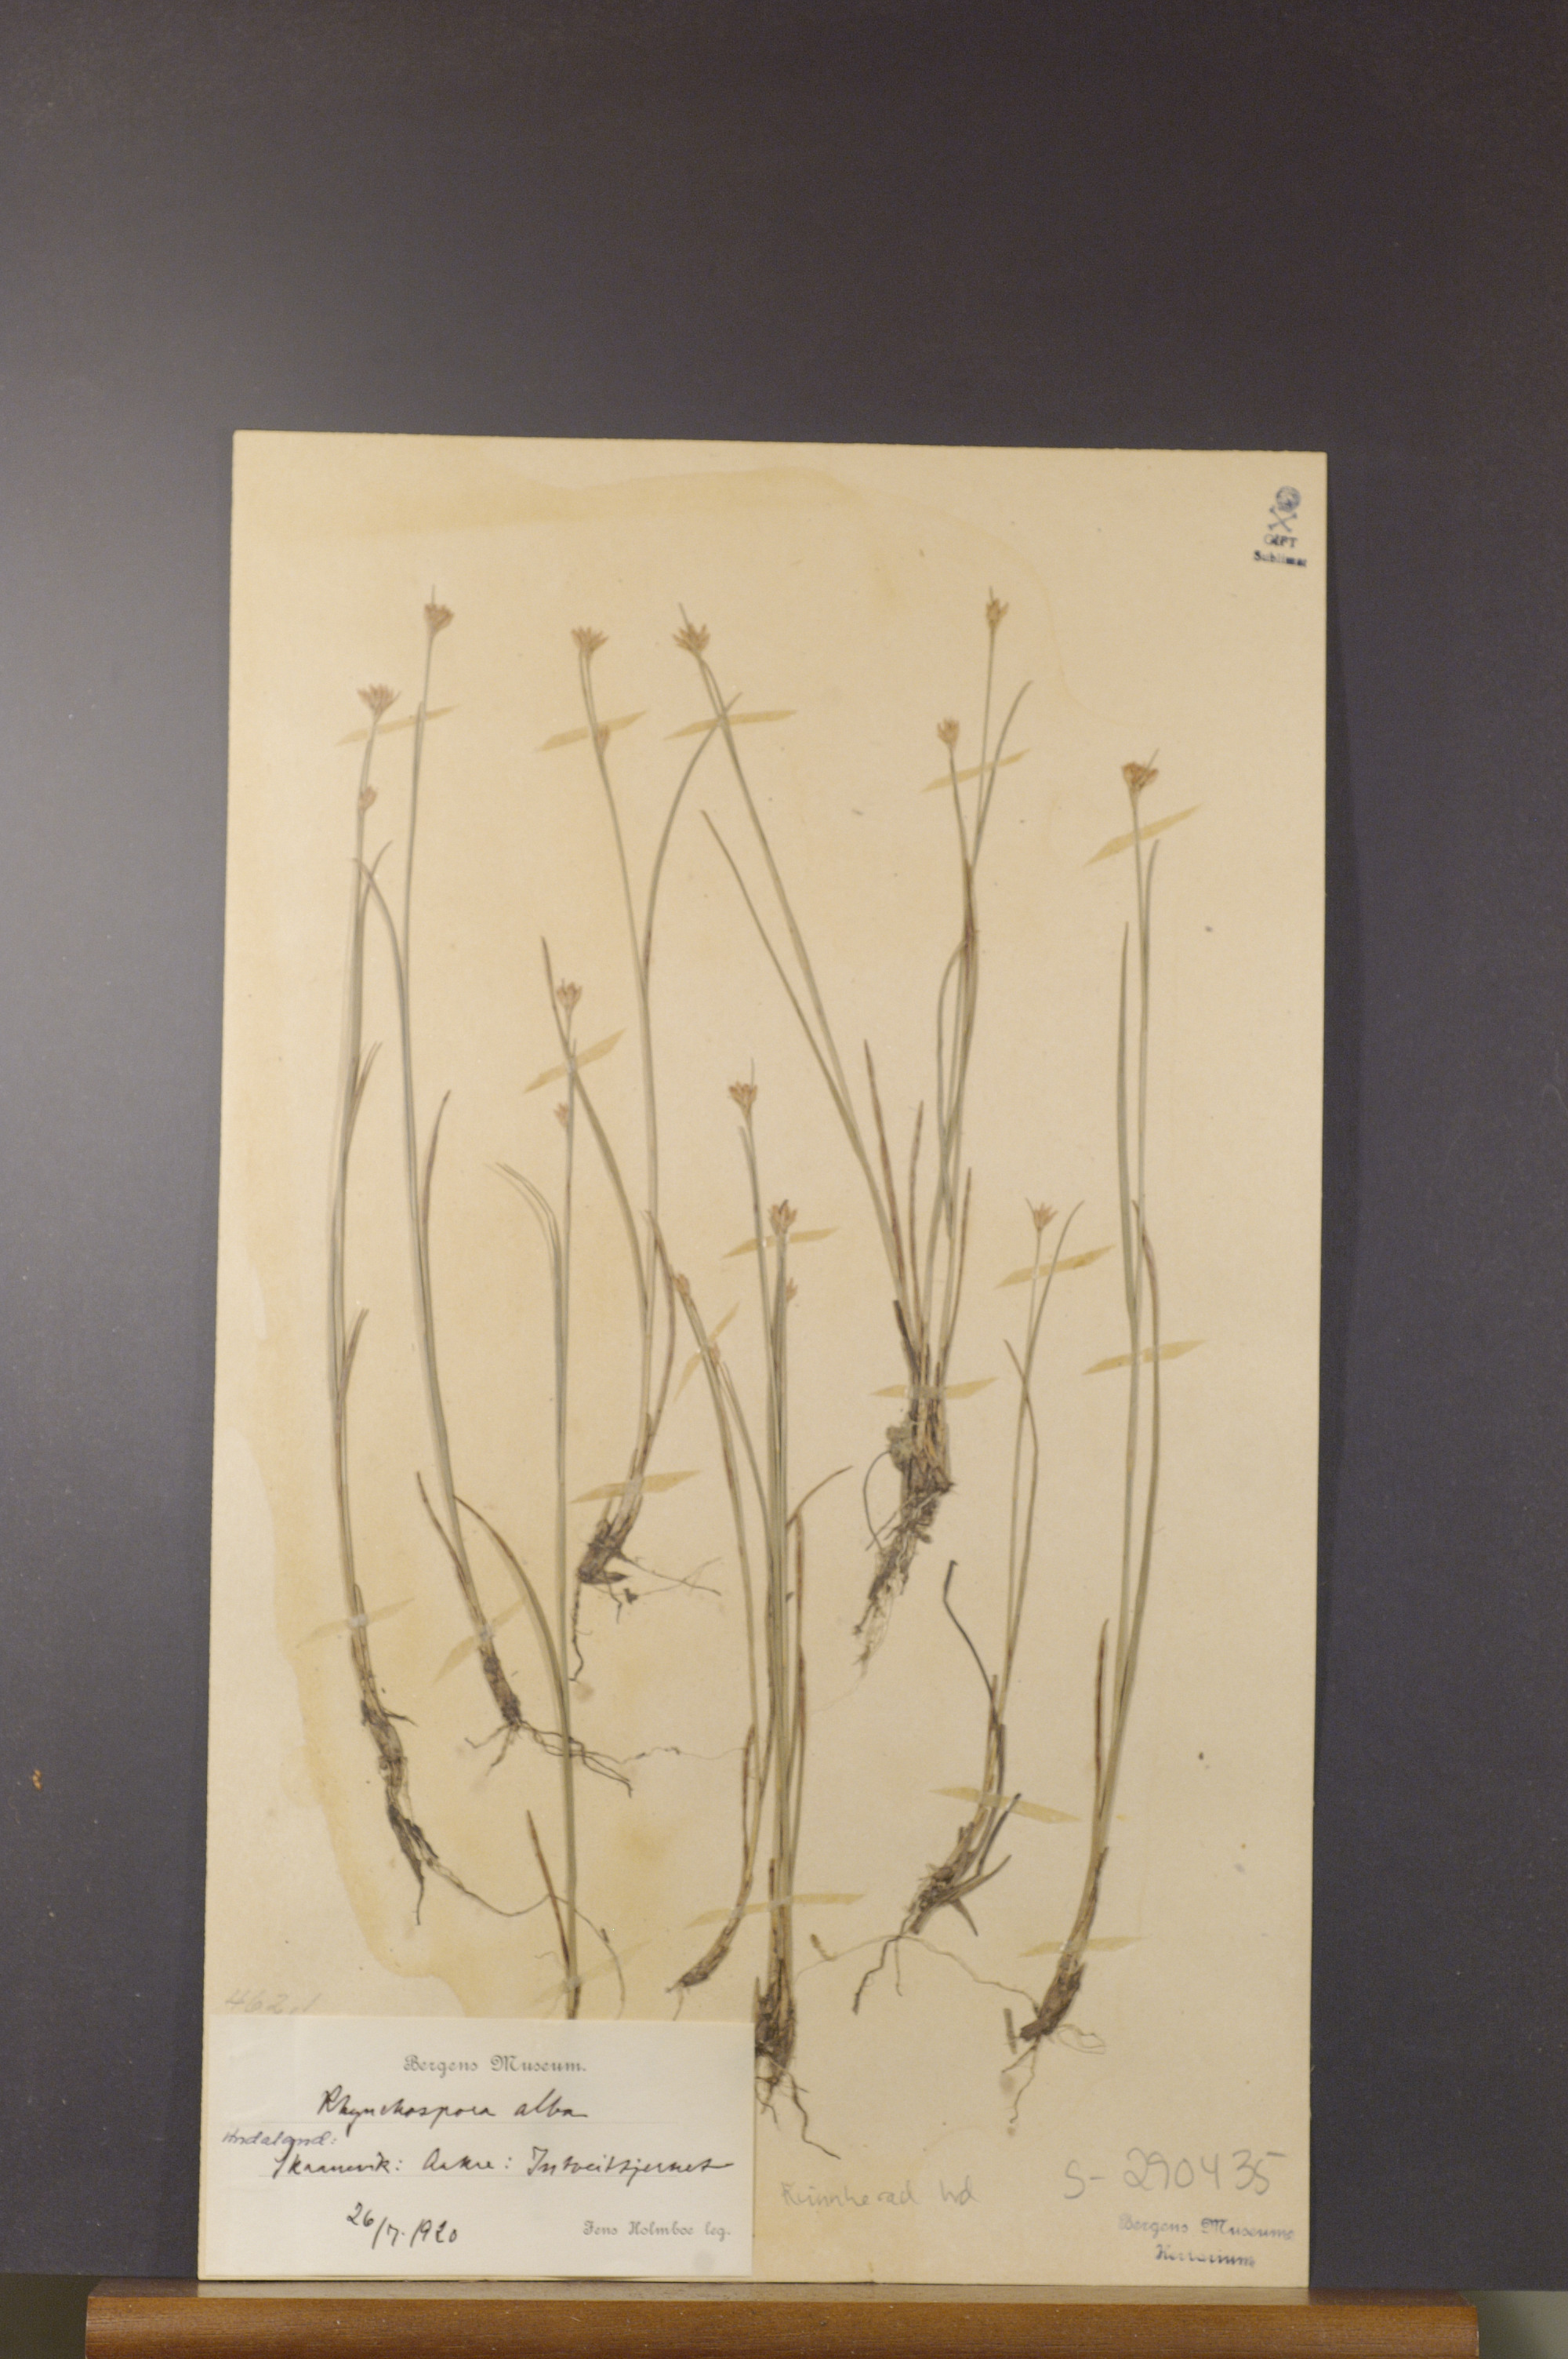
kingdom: Plantae
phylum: Tracheophyta
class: Liliopsida
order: Poales
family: Cyperaceae
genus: Rhynchospora
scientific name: Rhynchospora alba
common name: White beak-sedge
